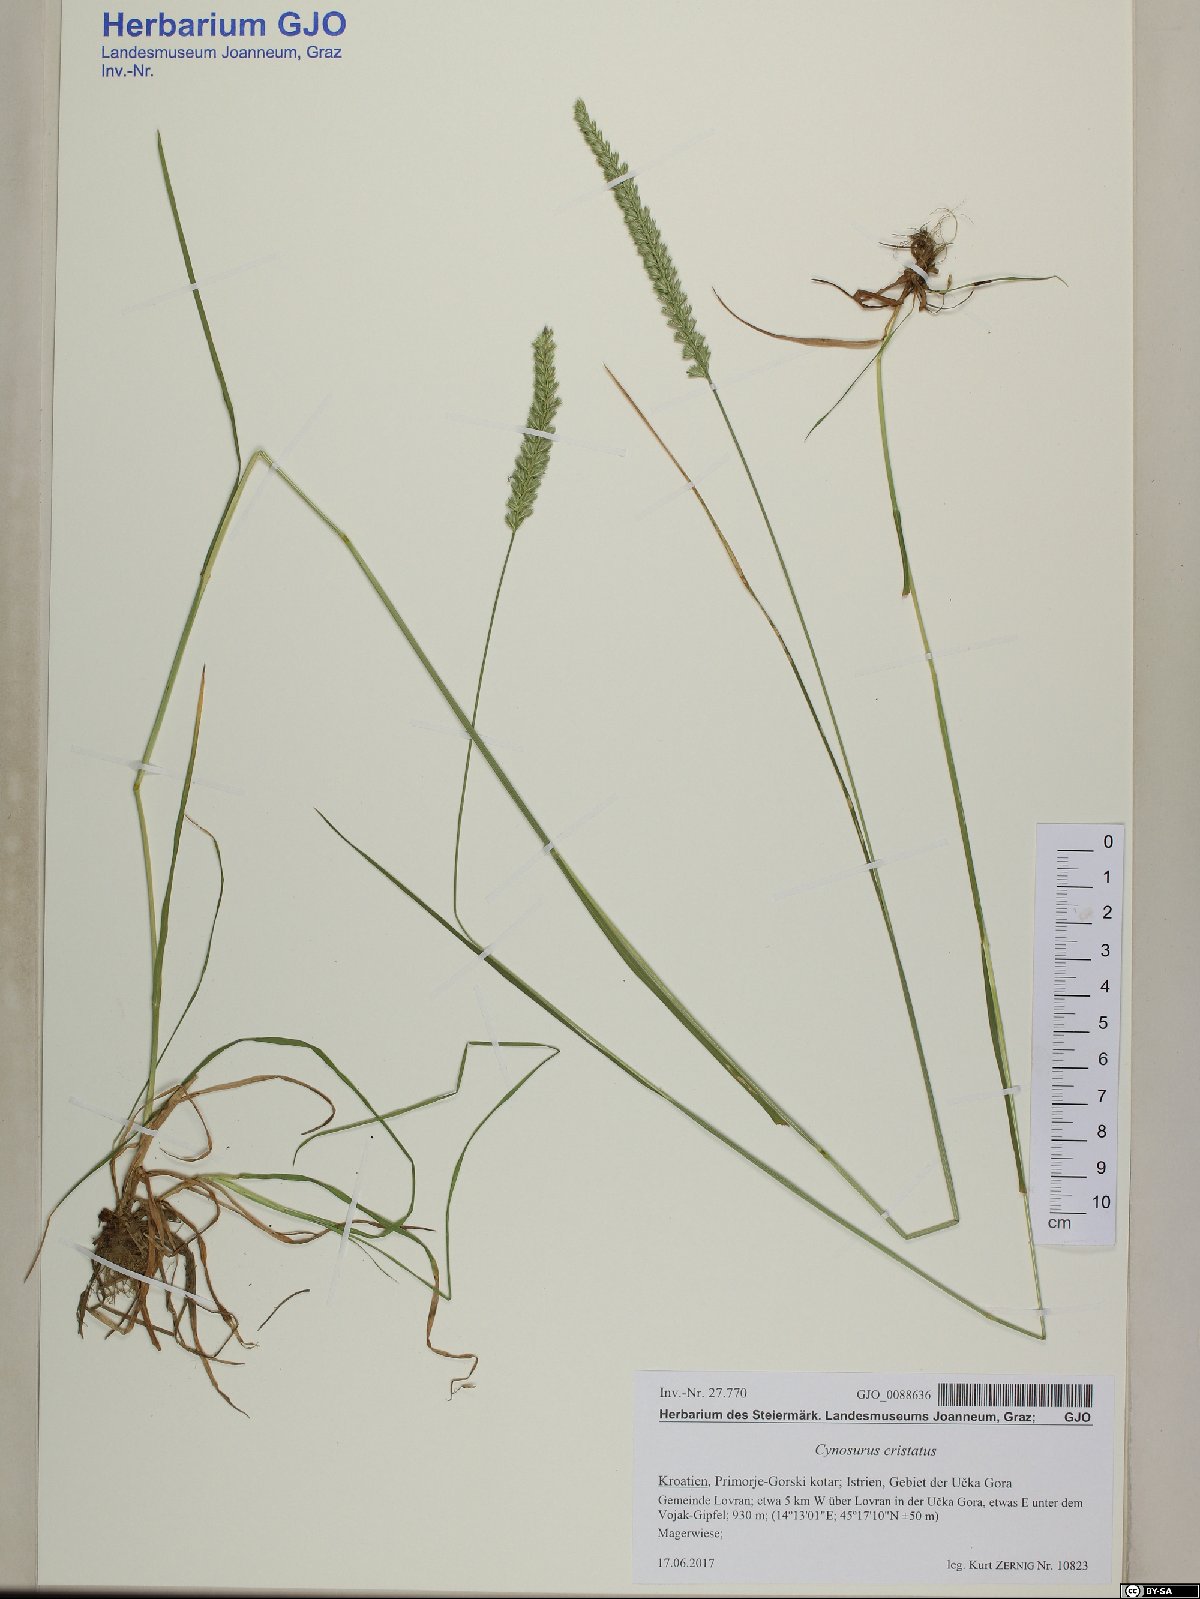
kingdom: Plantae
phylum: Tracheophyta
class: Liliopsida
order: Poales
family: Poaceae
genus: Cynosurus
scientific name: Cynosurus cristatus
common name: Crested dog's-tail
